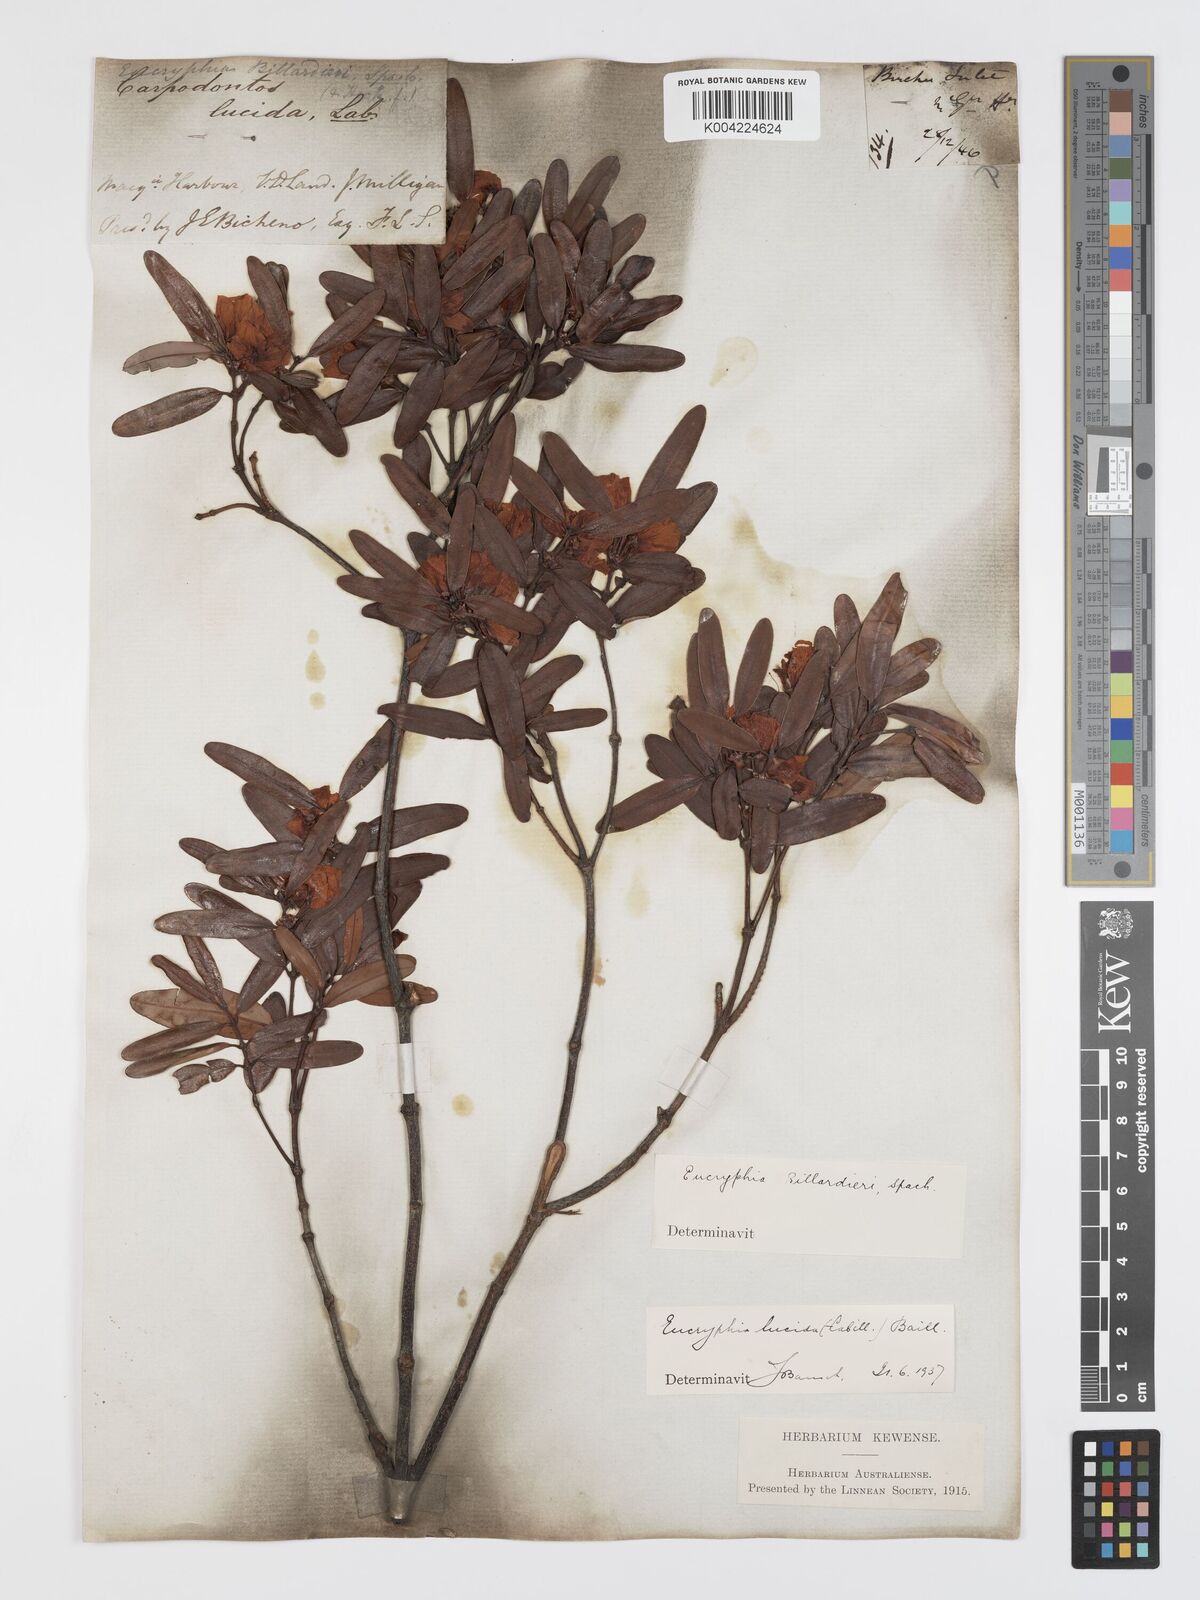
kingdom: Plantae
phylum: Tracheophyta
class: Magnoliopsida
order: Oxalidales
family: Cunoniaceae
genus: Eucryphia
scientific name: Eucryphia lucida
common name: Leatherwood
